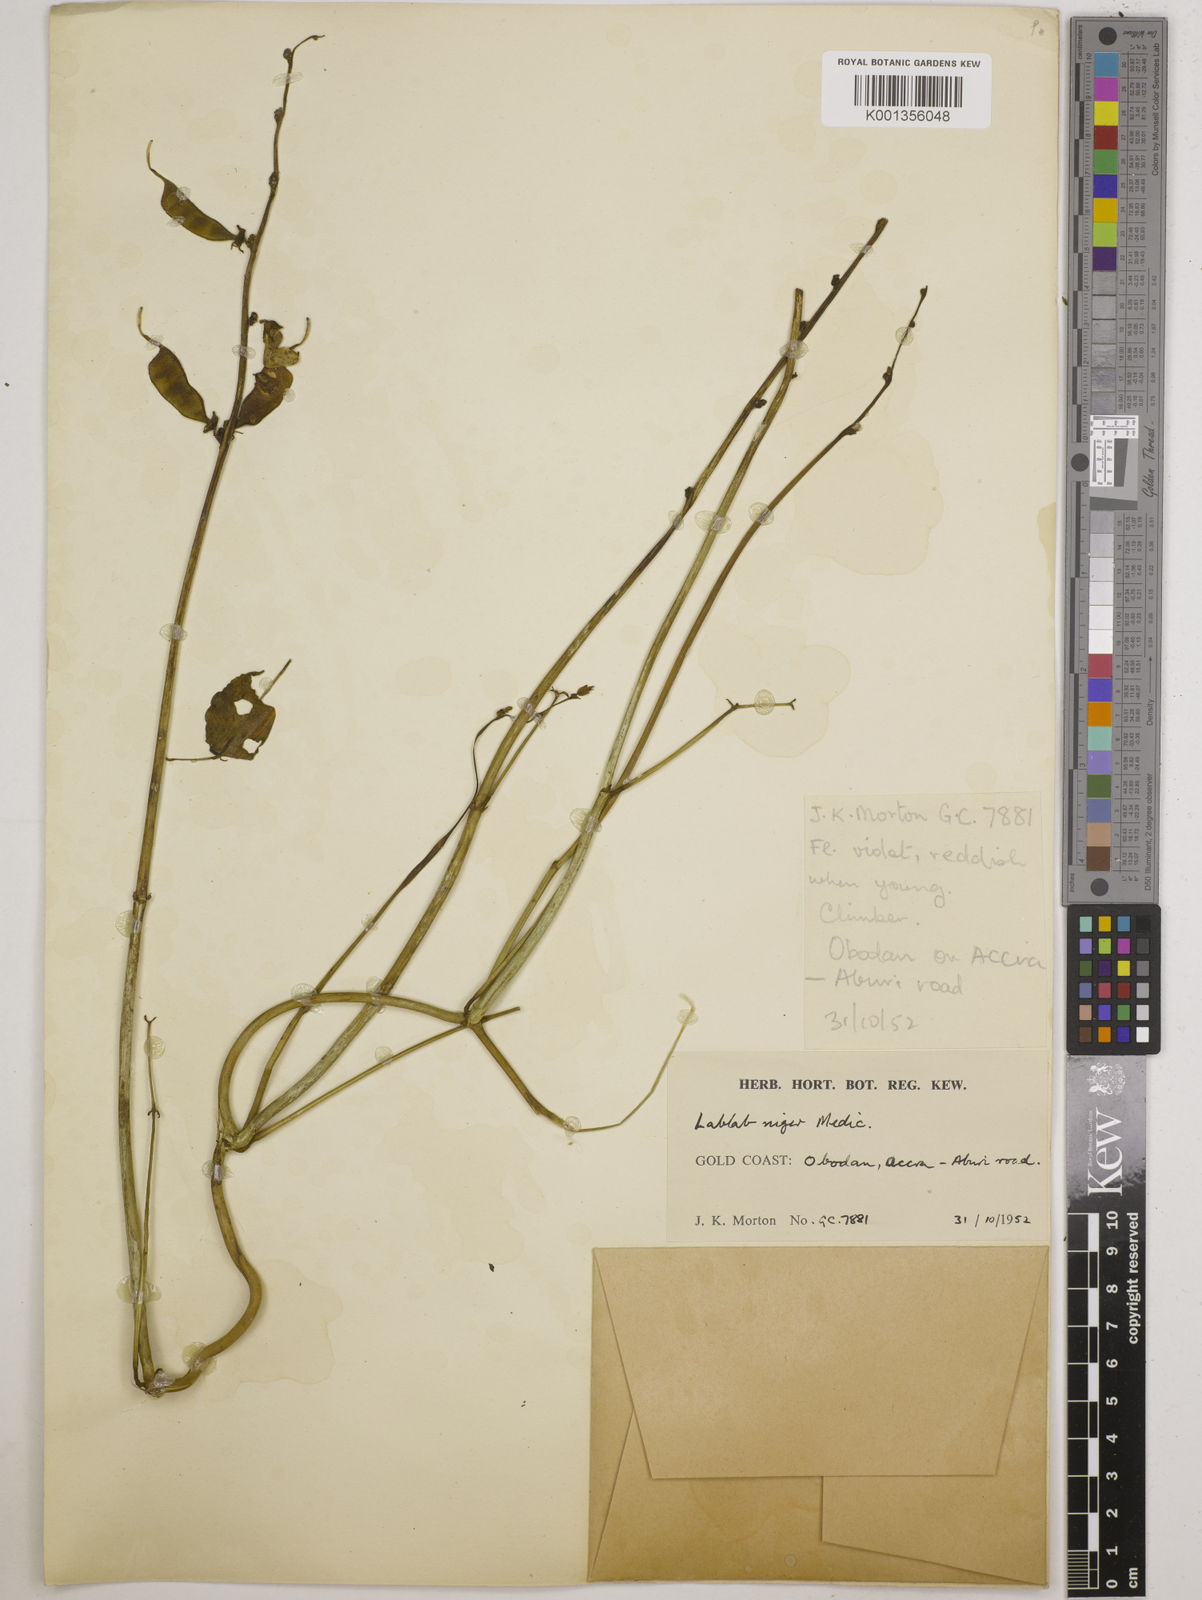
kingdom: Plantae
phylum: Tracheophyta
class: Magnoliopsida
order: Fabales
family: Fabaceae
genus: Lablab
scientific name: Lablab purpureus
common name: Lablab-bean
